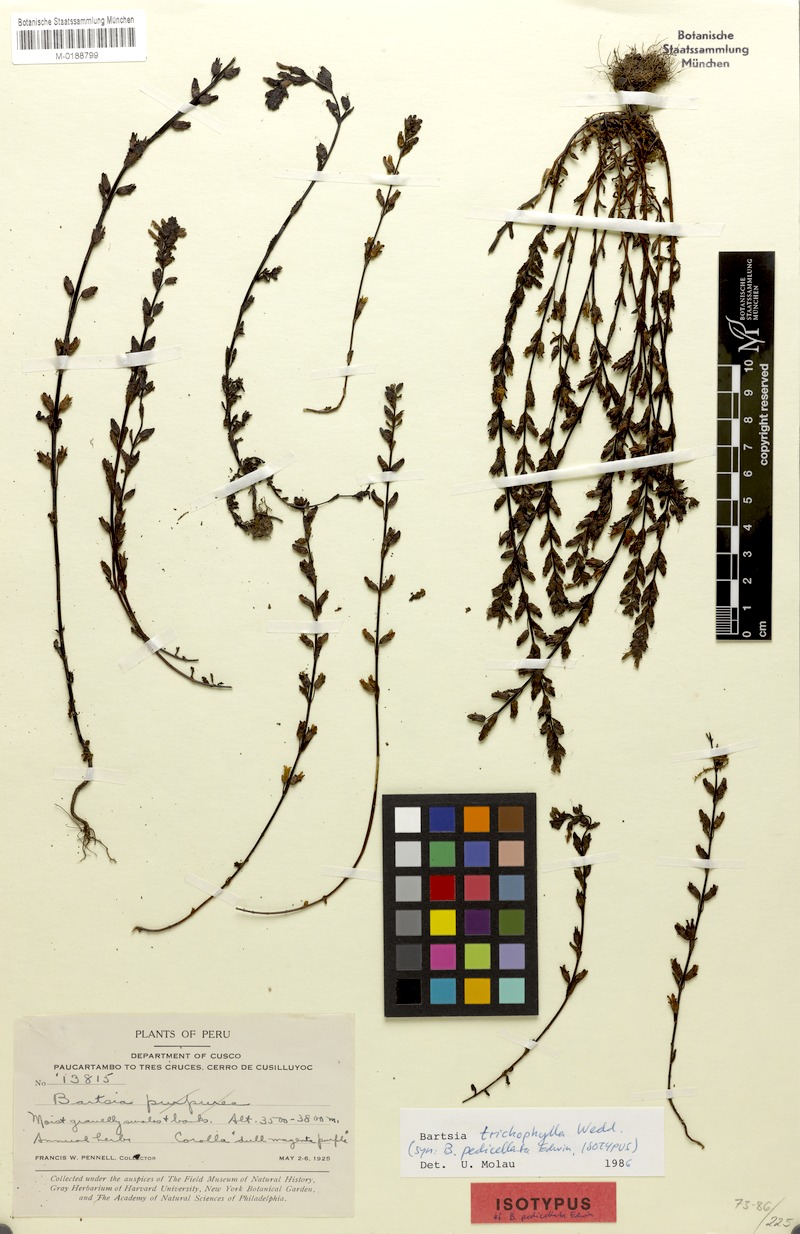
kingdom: Plantae
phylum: Tracheophyta
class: Magnoliopsida
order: Lamiales
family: Orobanchaceae
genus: Neobartsia
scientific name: Neobartsia trichophylla
